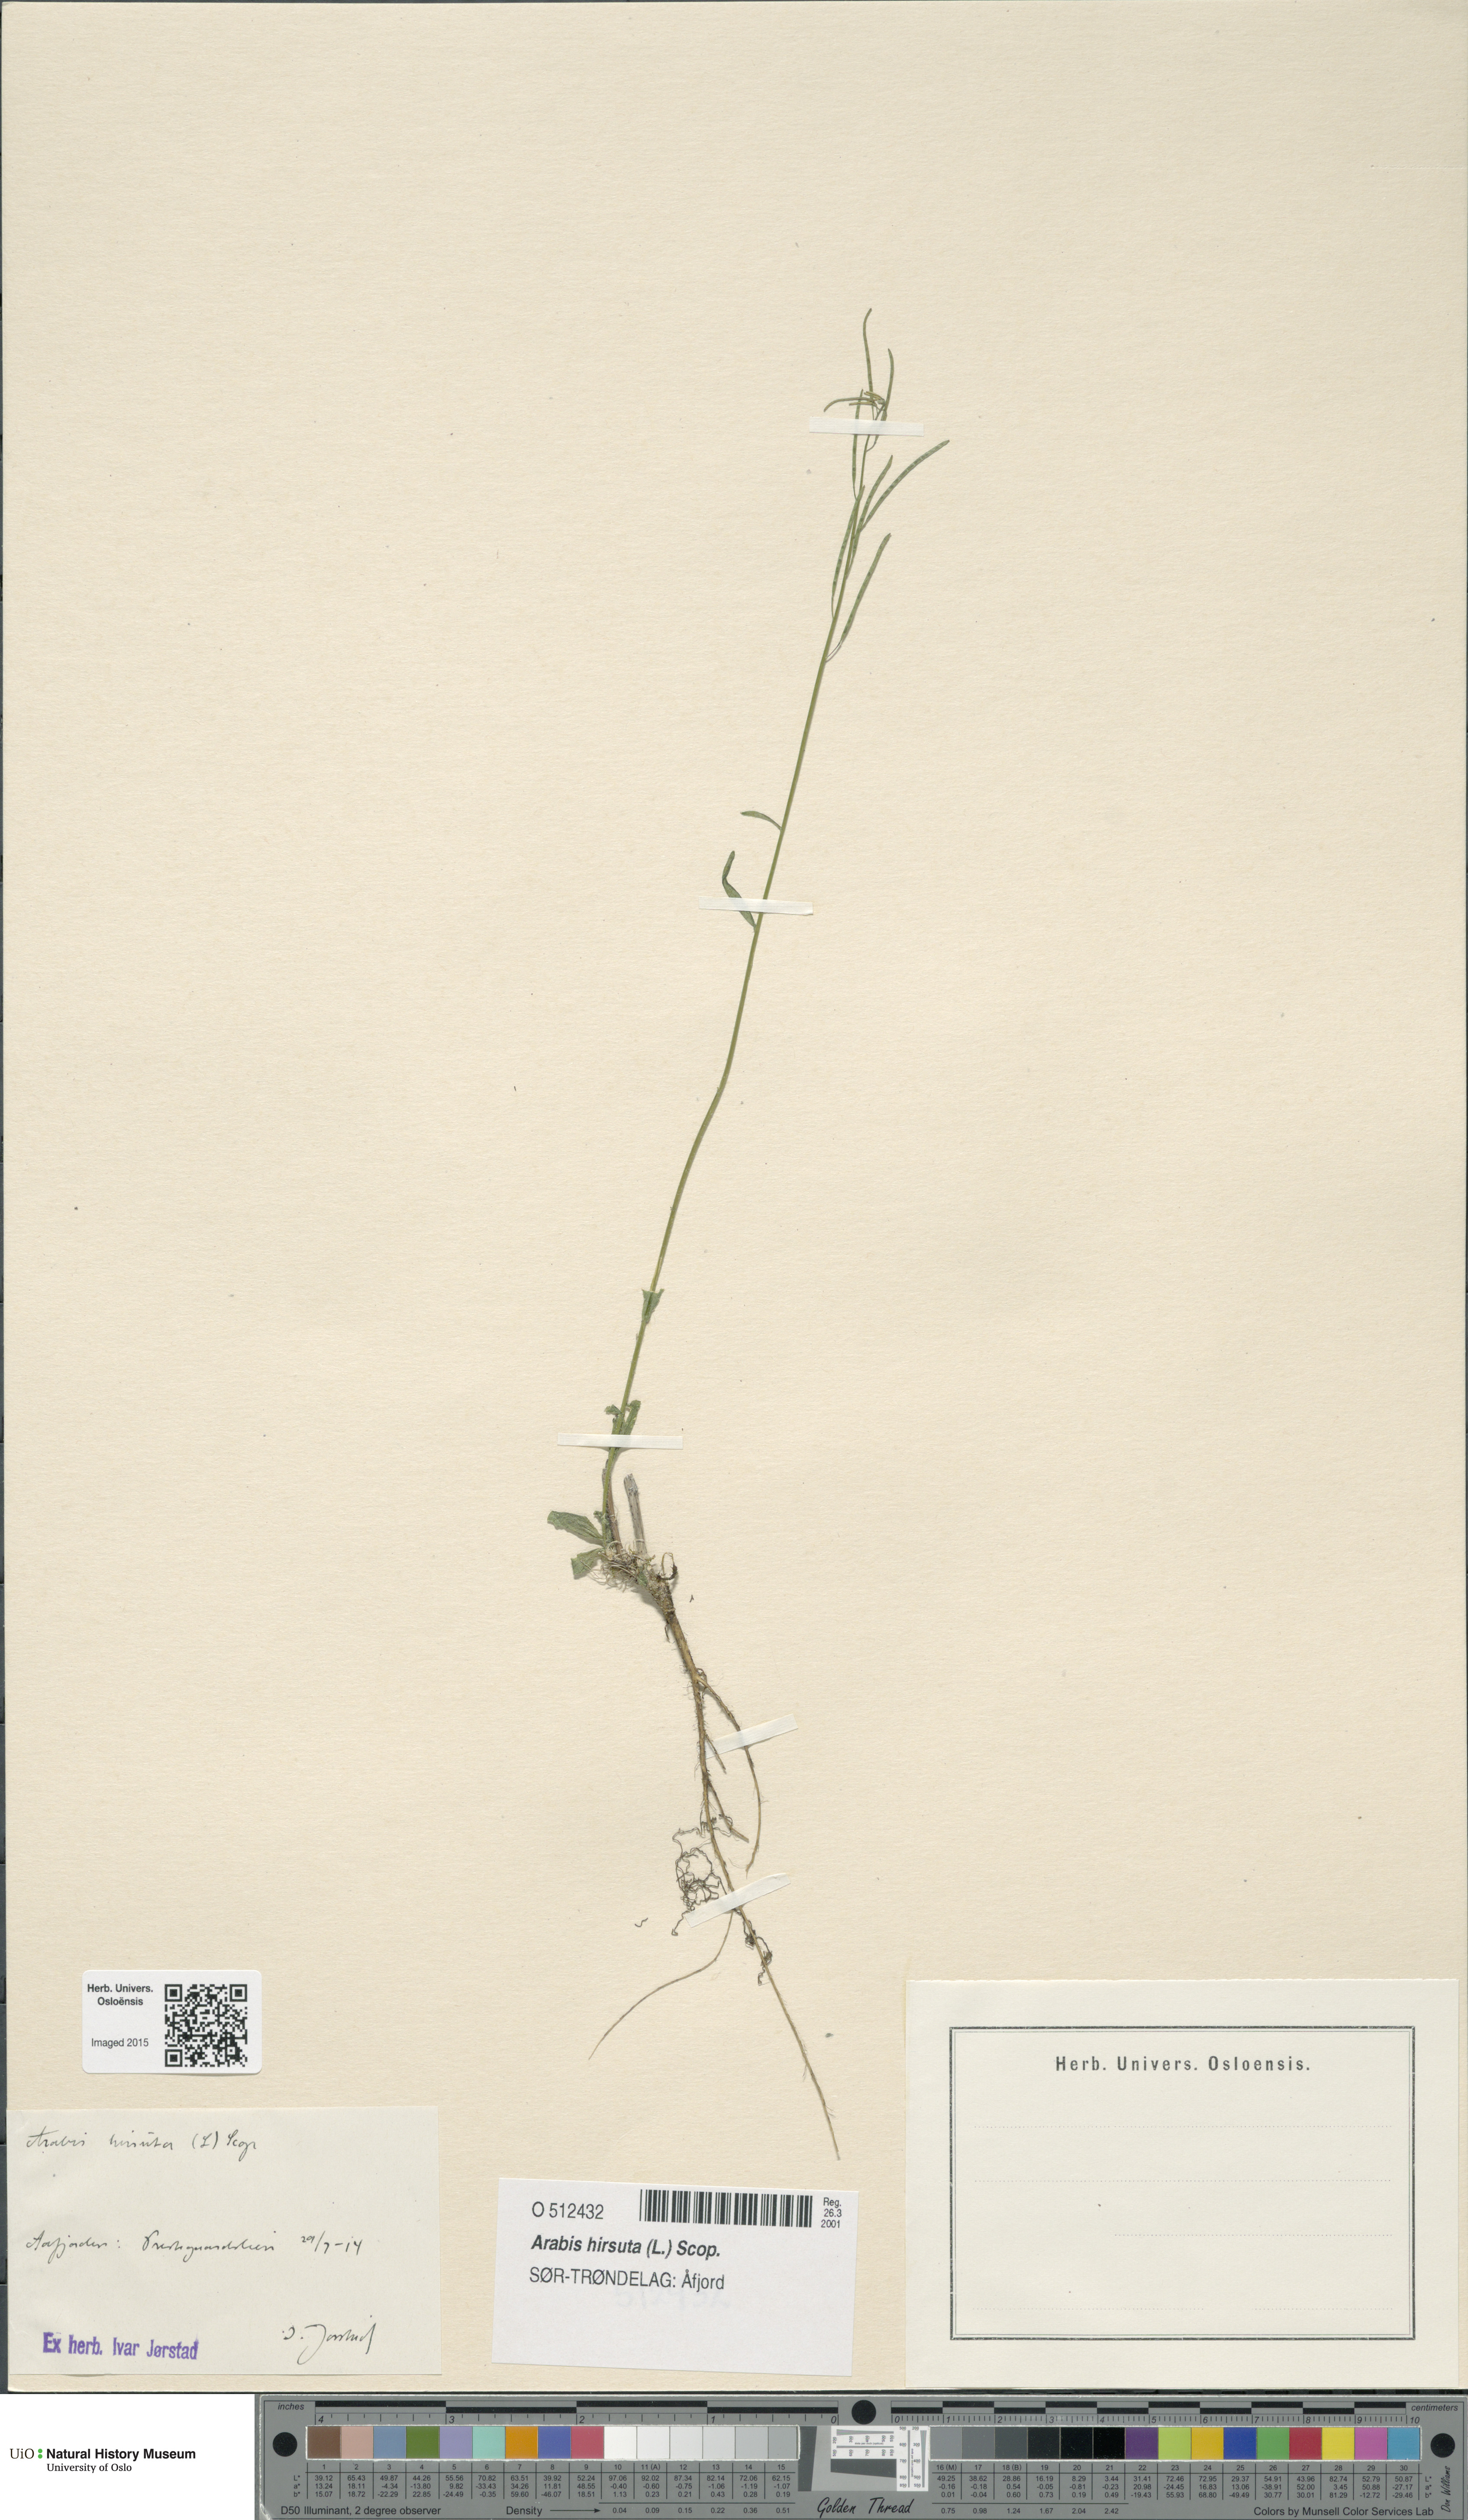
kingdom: Plantae
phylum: Tracheophyta
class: Magnoliopsida
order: Brassicales
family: Brassicaceae
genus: Arabis
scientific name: Arabis hirsuta
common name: Hairy rock-cress
